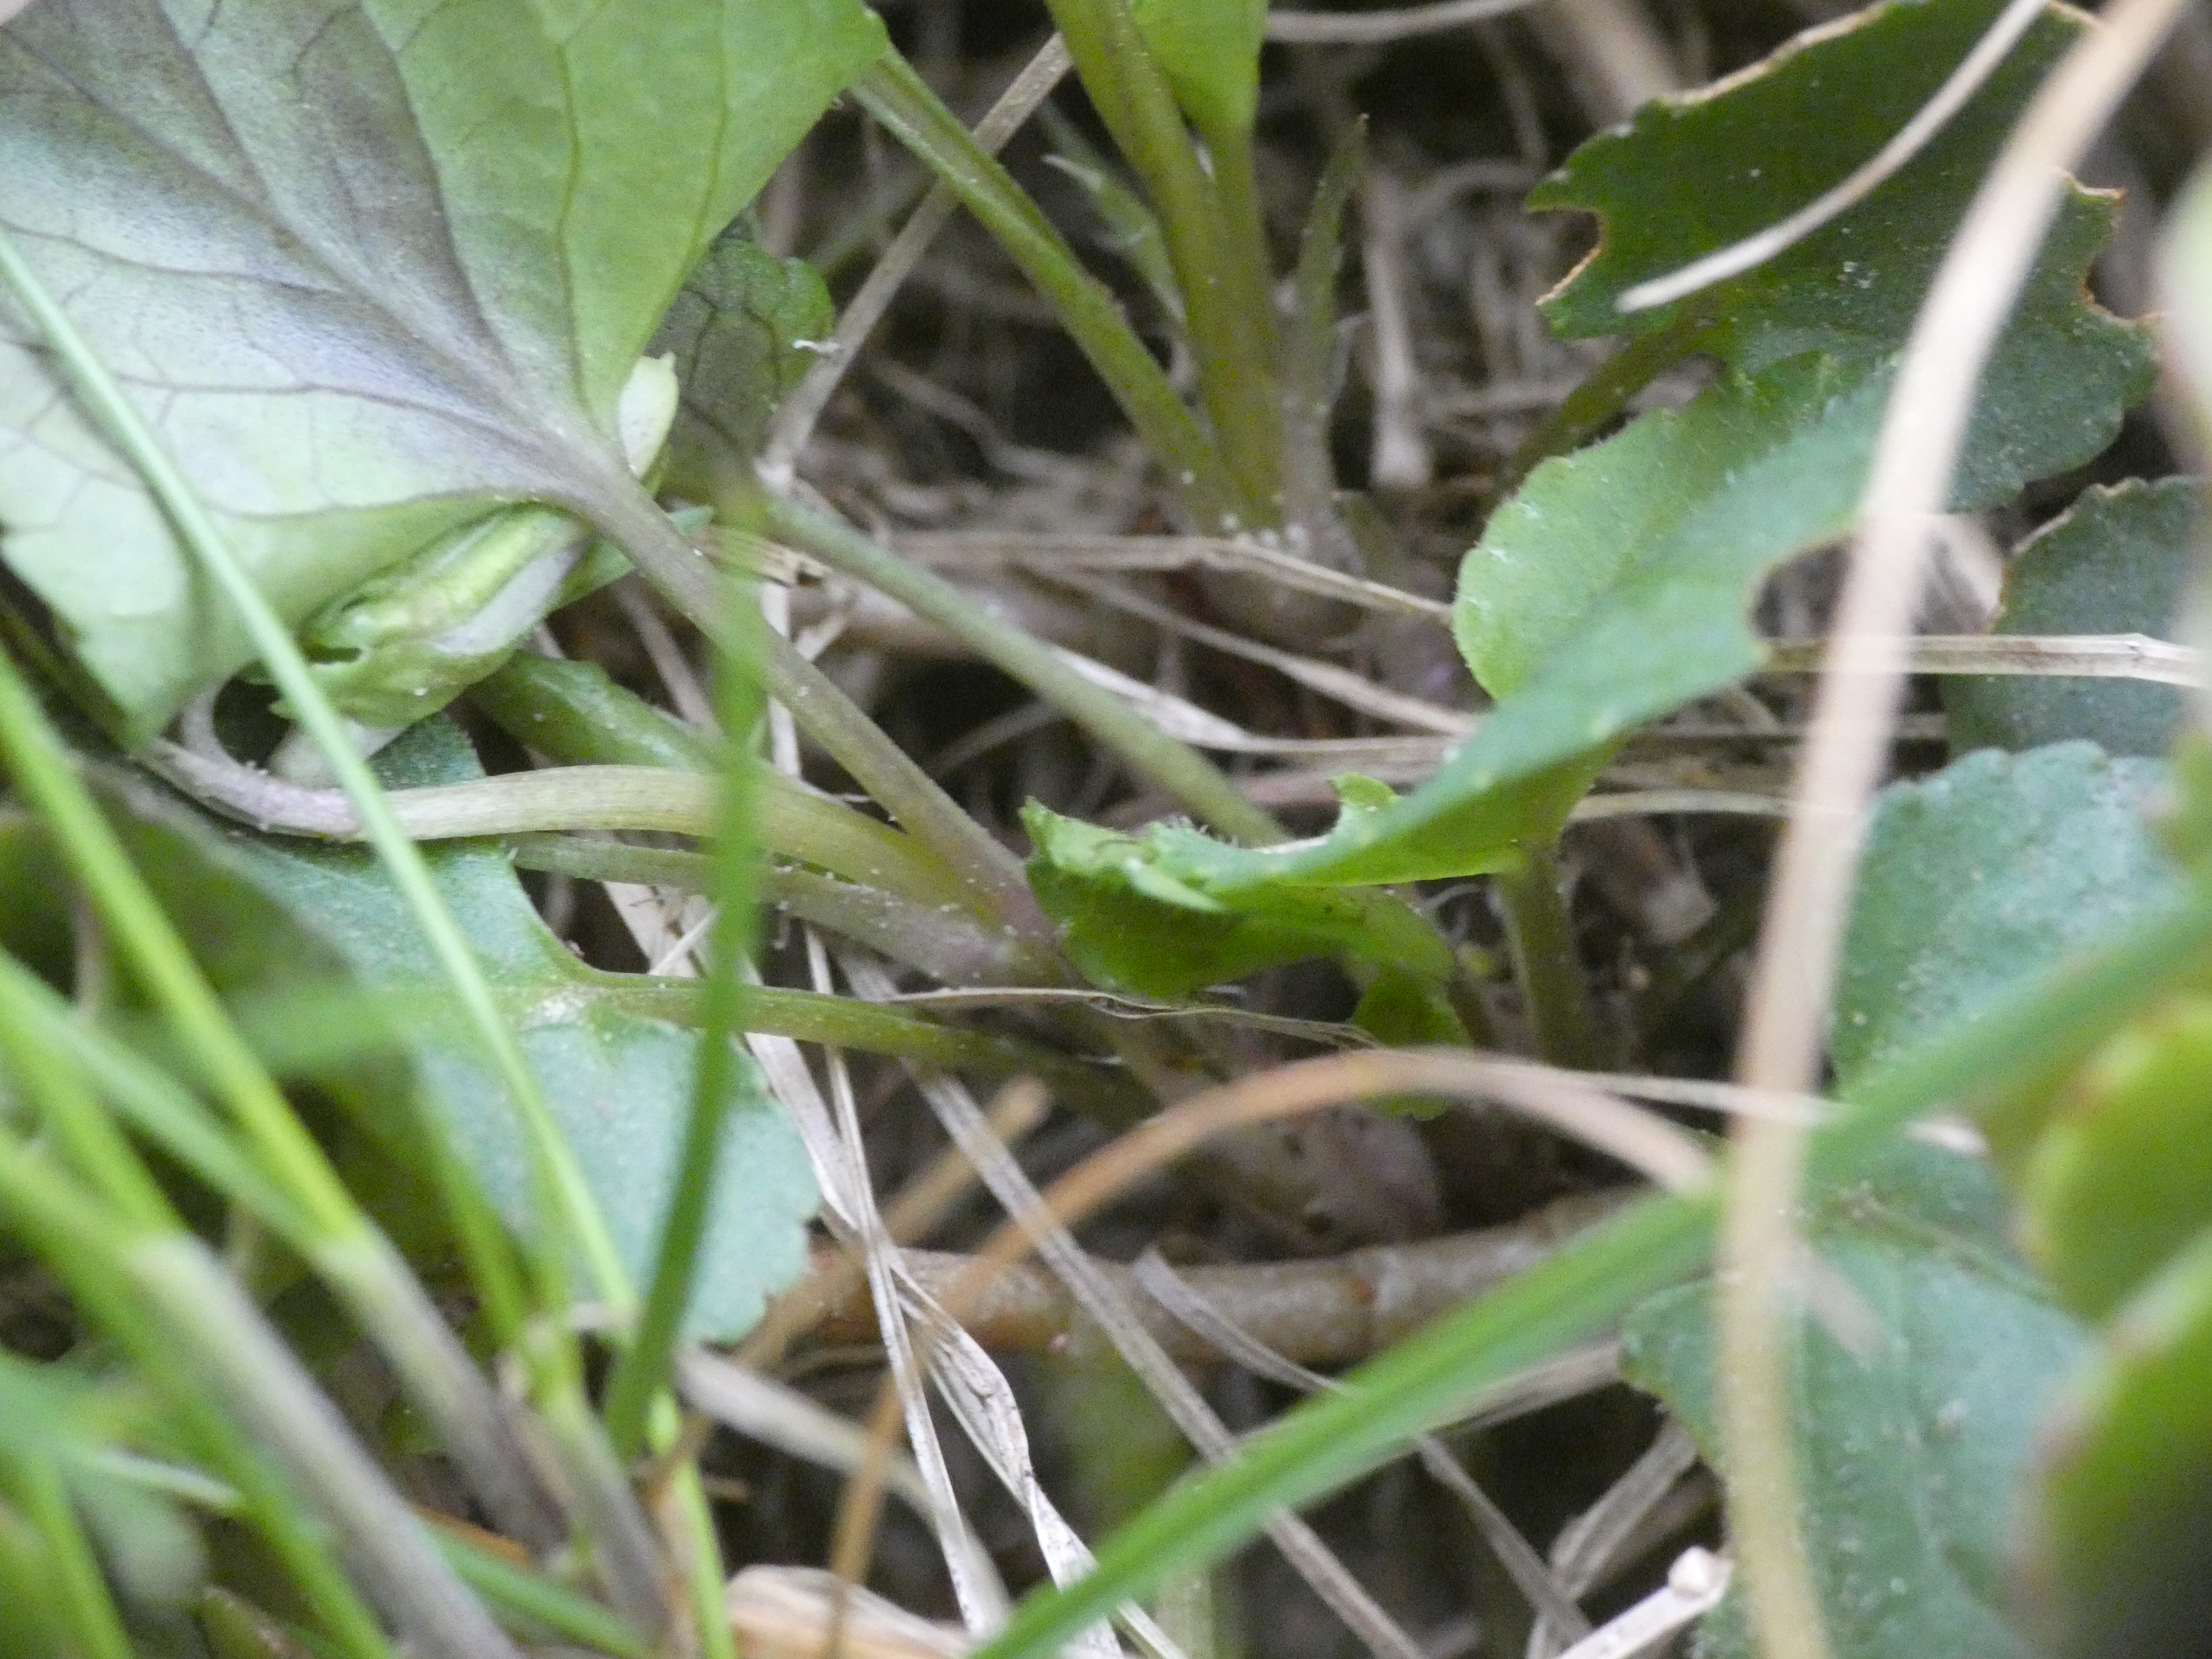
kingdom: Plantae
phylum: Tracheophyta
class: Magnoliopsida
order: Malpighiales
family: Violaceae
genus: Viola
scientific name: Viola riviniana
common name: Krat-viol
